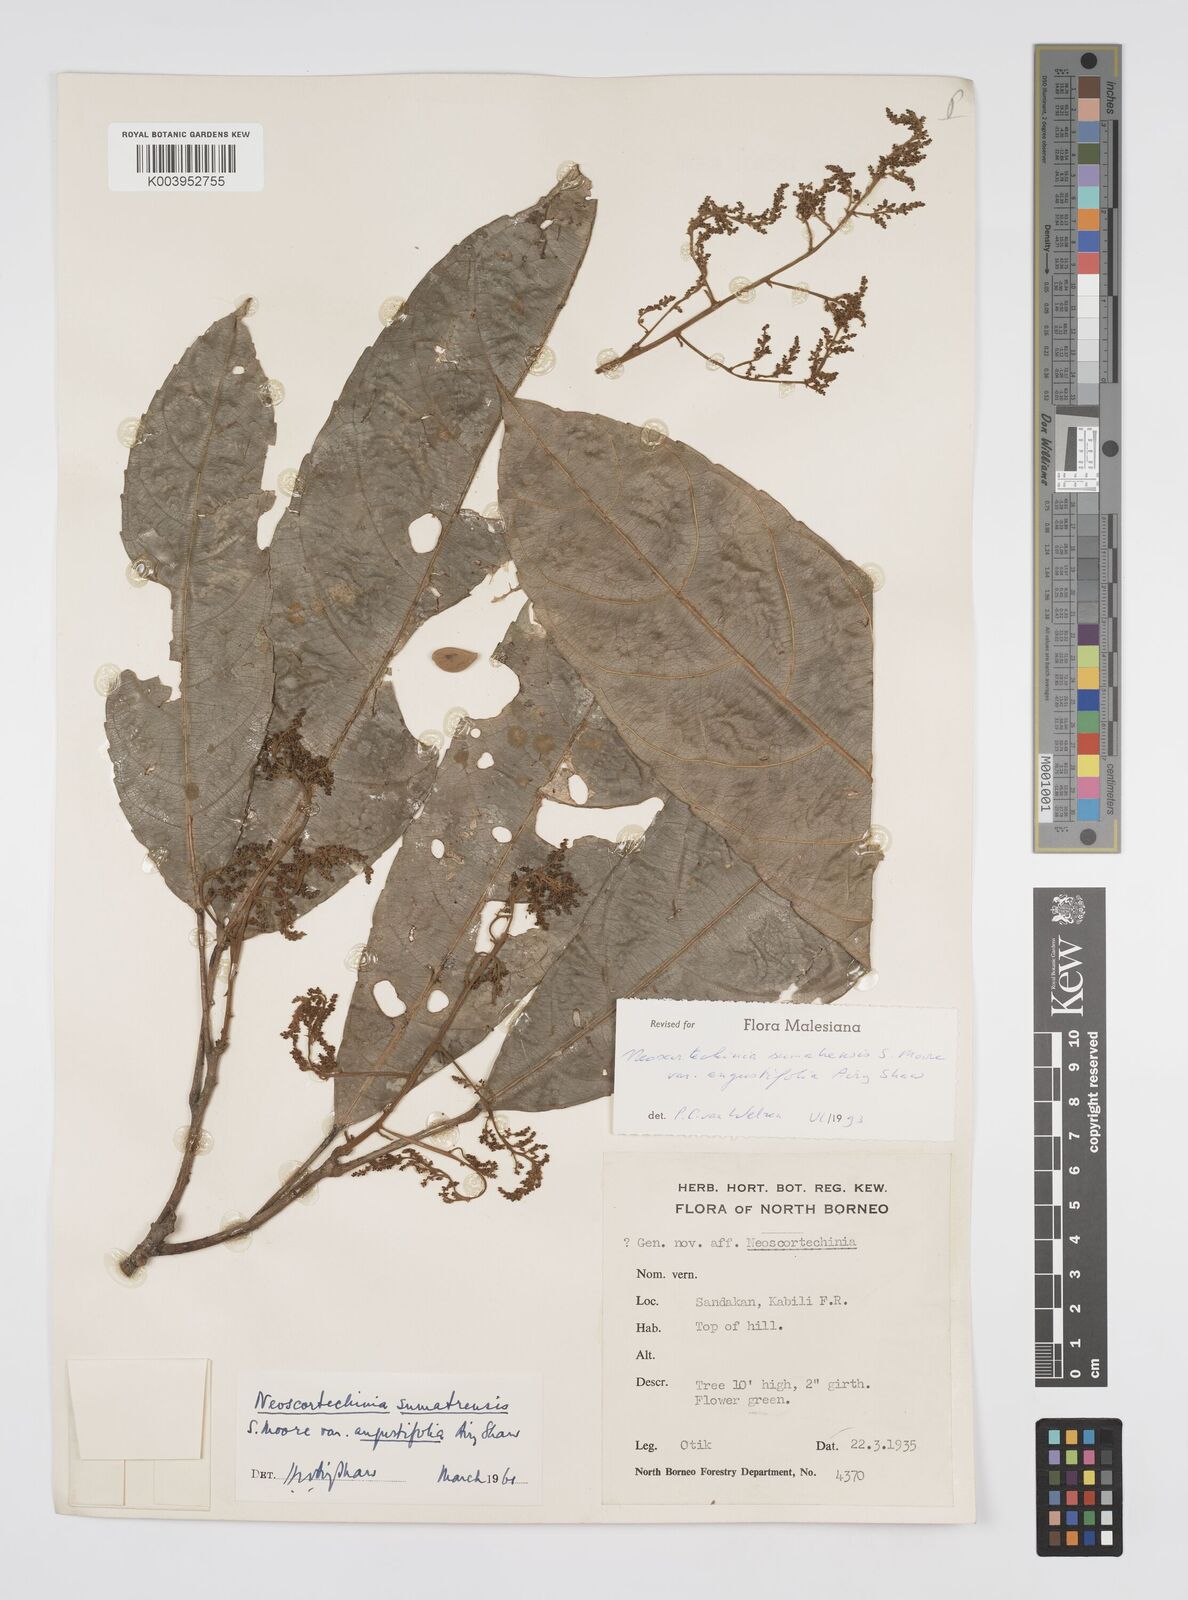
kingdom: Plantae
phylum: Tracheophyta
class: Magnoliopsida
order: Malpighiales
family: Euphorbiaceae
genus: Neoscortechinia
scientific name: Neoscortechinia angustifolia
